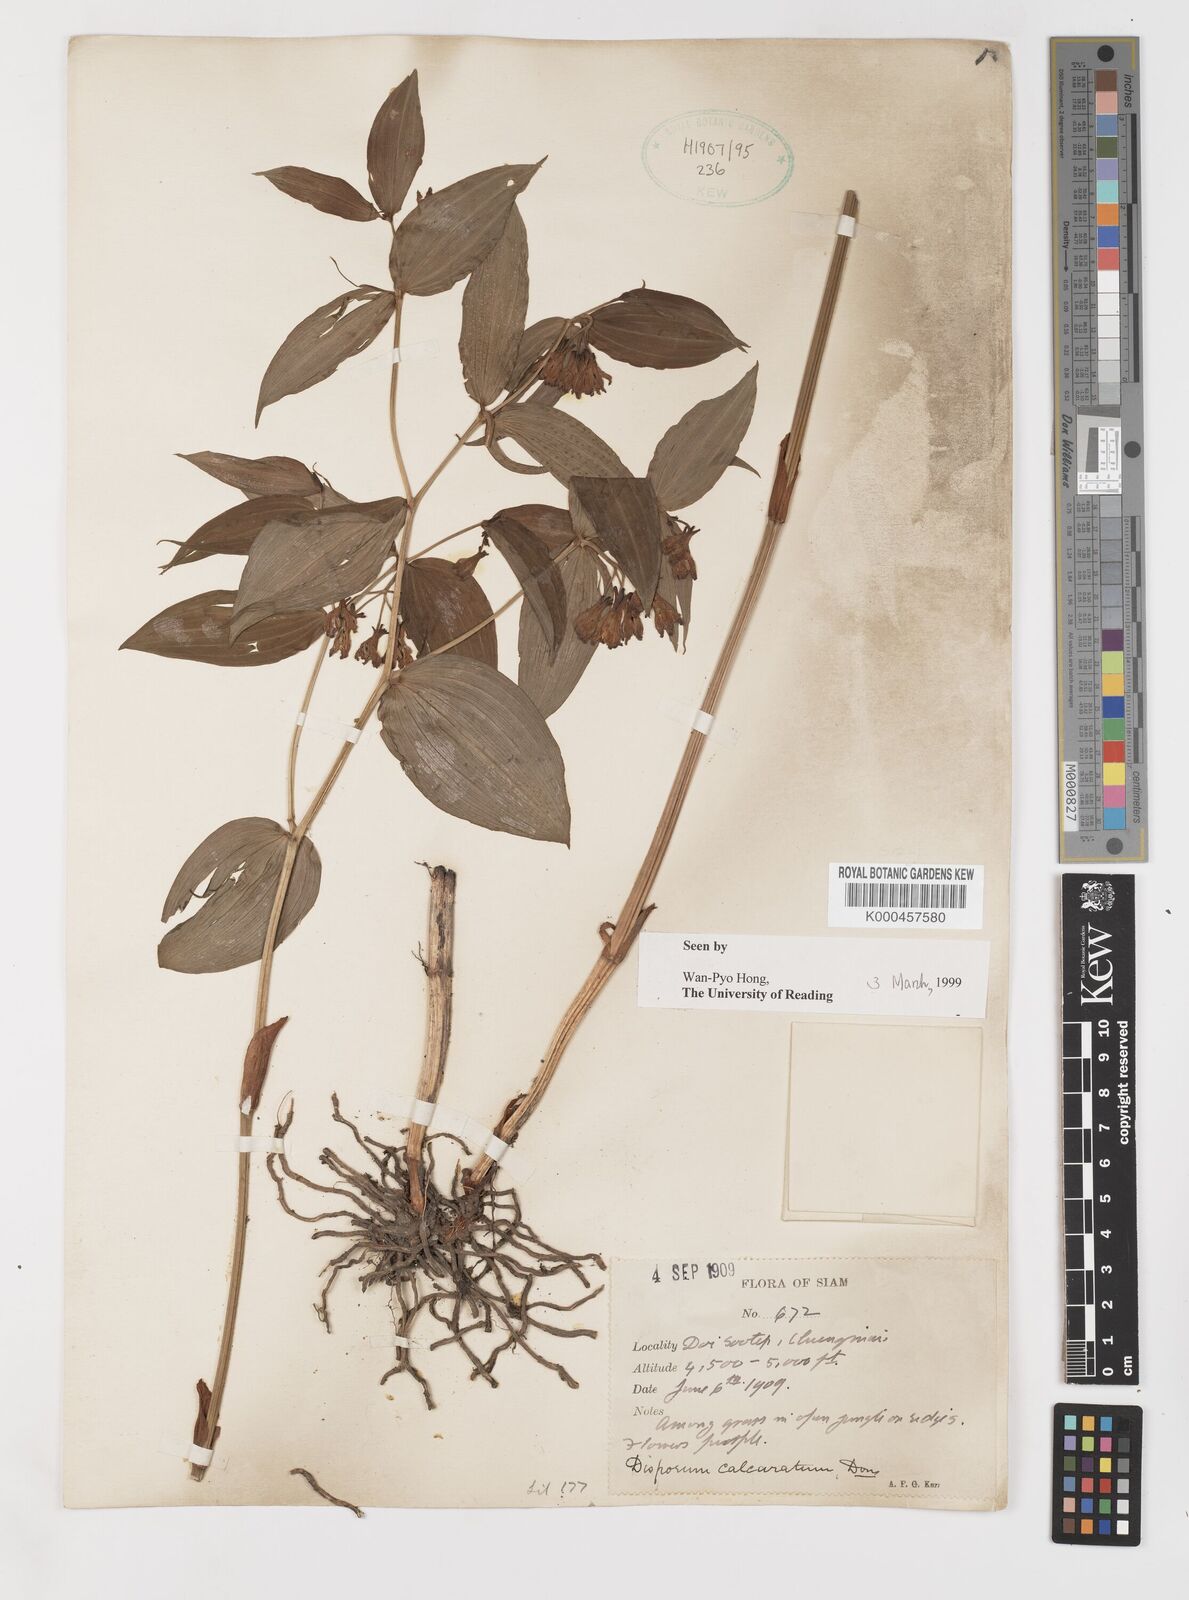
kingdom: Plantae
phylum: Tracheophyta
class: Liliopsida
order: Liliales
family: Colchicaceae
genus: Disporum
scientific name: Disporum calcaratum
